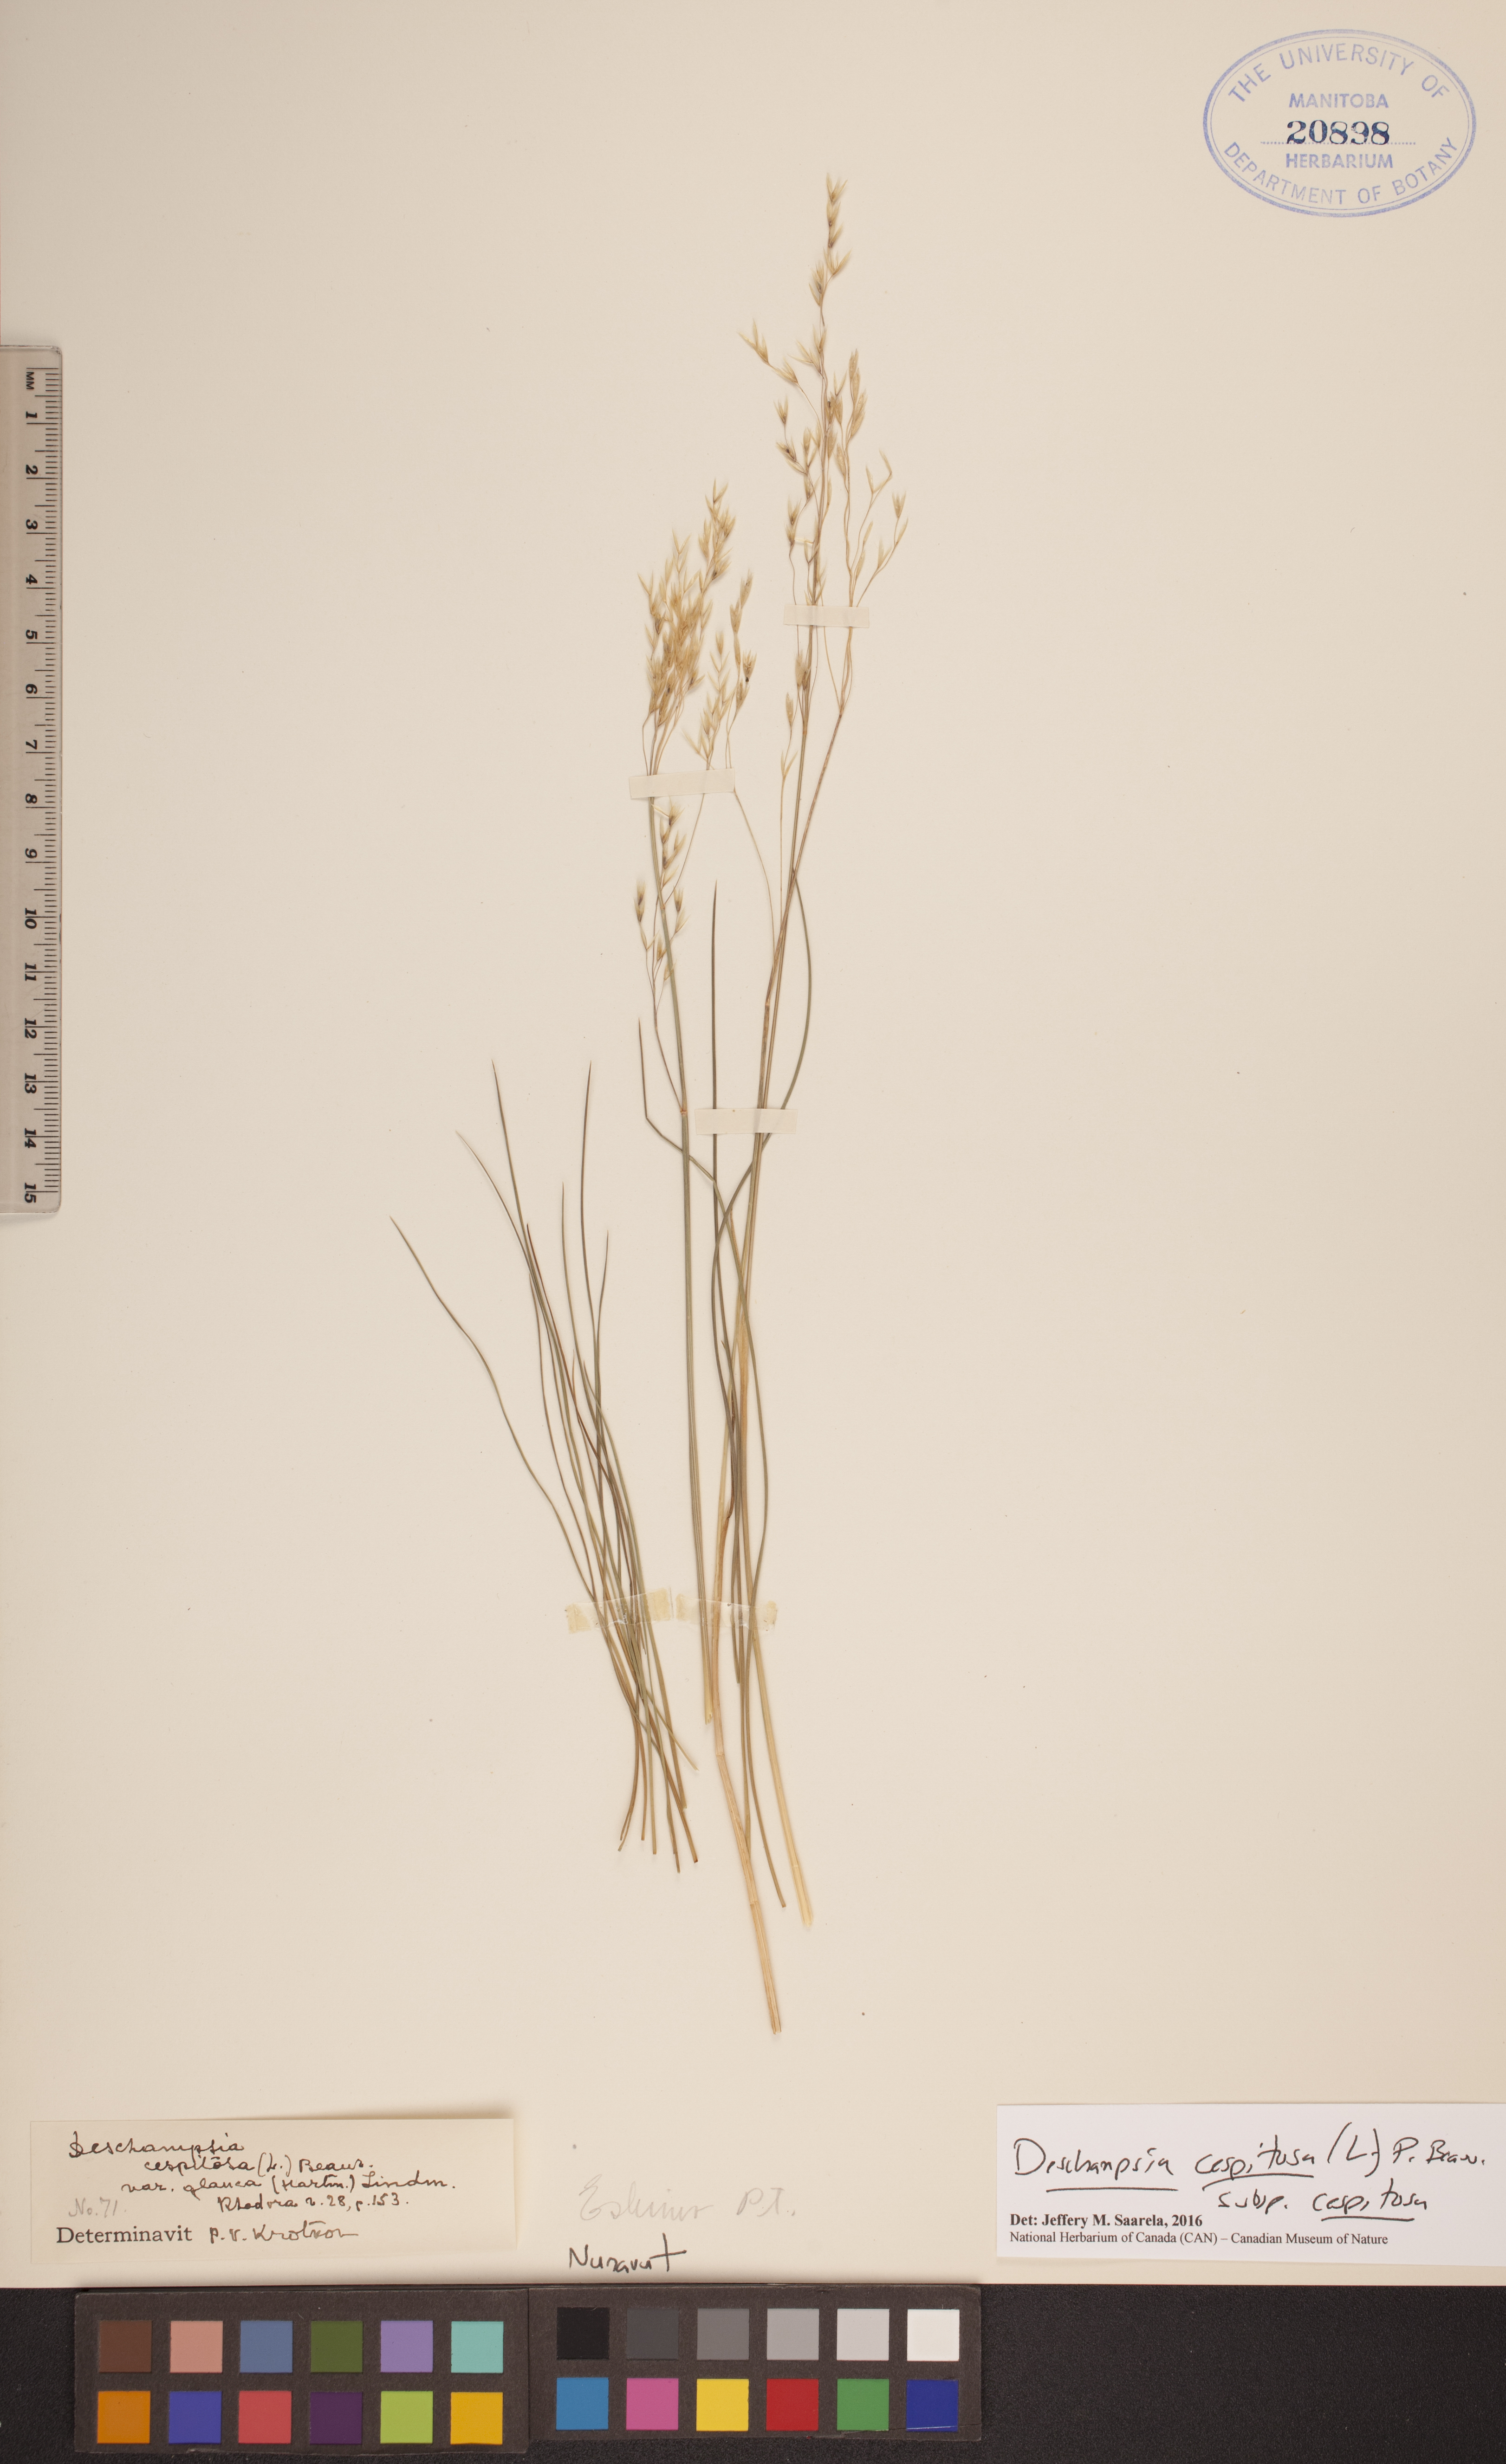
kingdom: Plantae
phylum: Tracheophyta
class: Liliopsida
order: Poales
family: Poaceae
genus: Deschampsia
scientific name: Deschampsia cespitosa
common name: Tufted hair-grass
